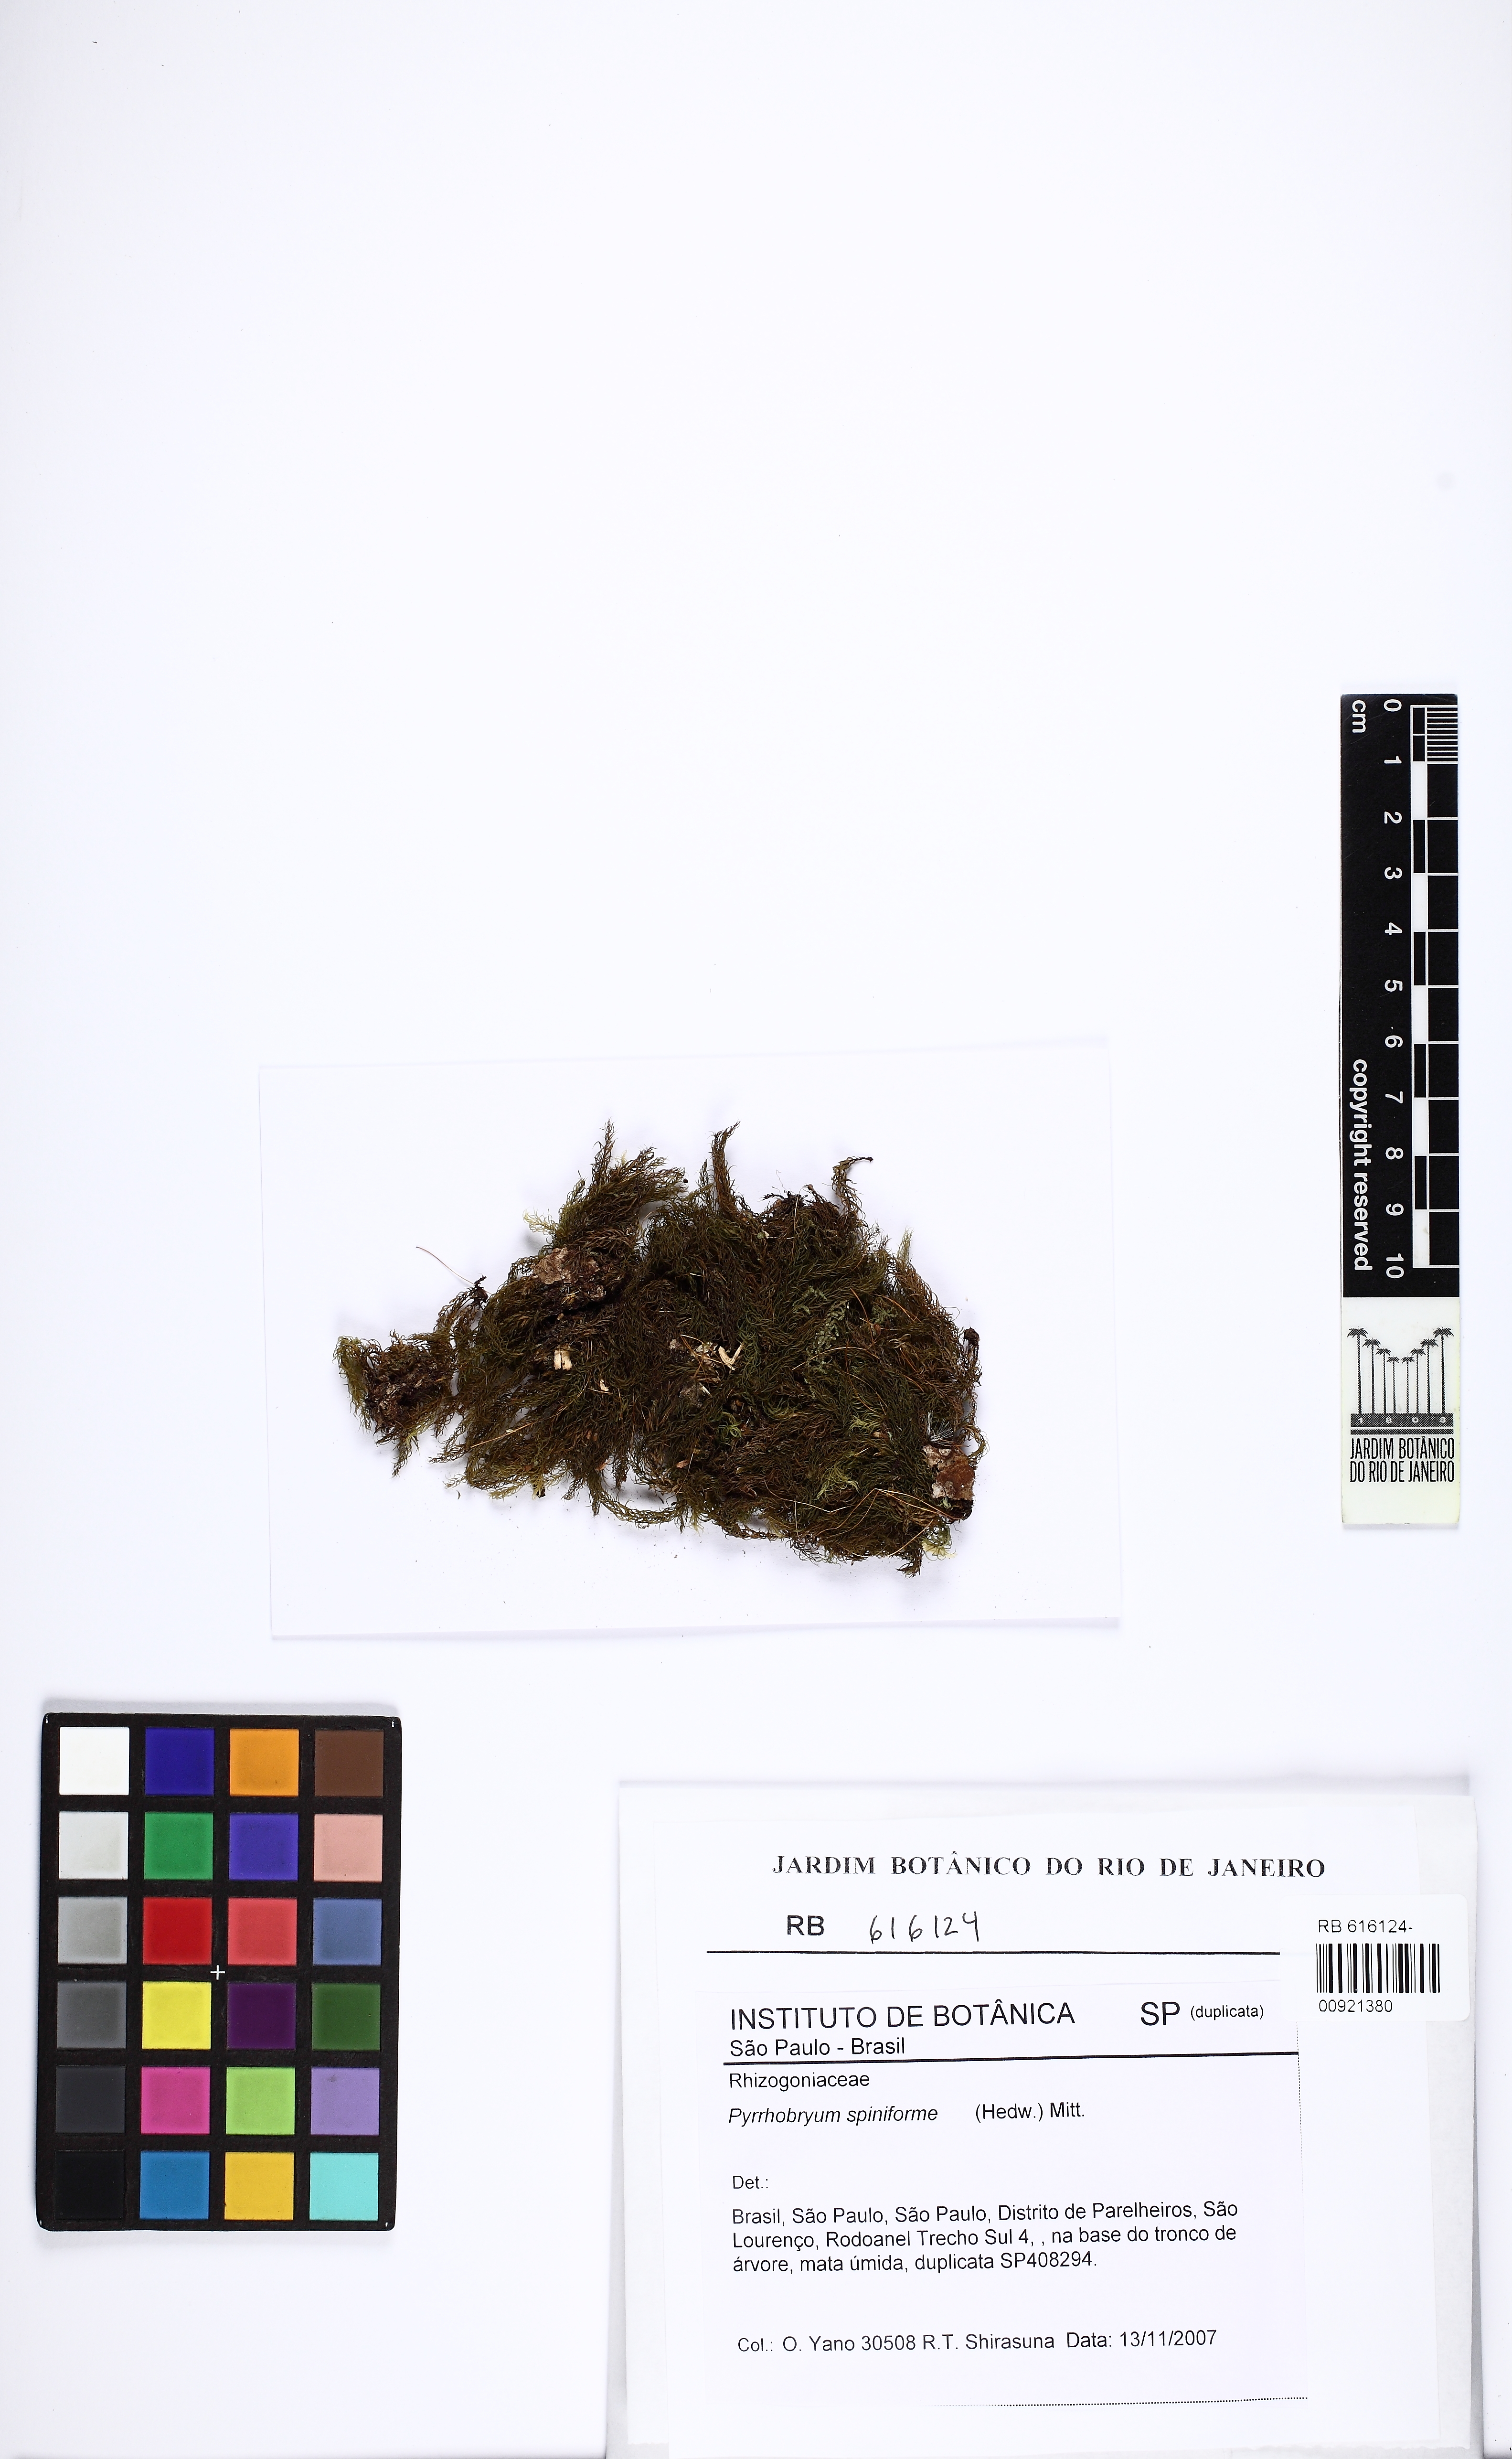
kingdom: Plantae
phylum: Bryophyta
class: Bryopsida
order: Rhizogoniales
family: Calomniaceae
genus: Pyrrhobryum
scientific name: Pyrrhobryum spiniforme
